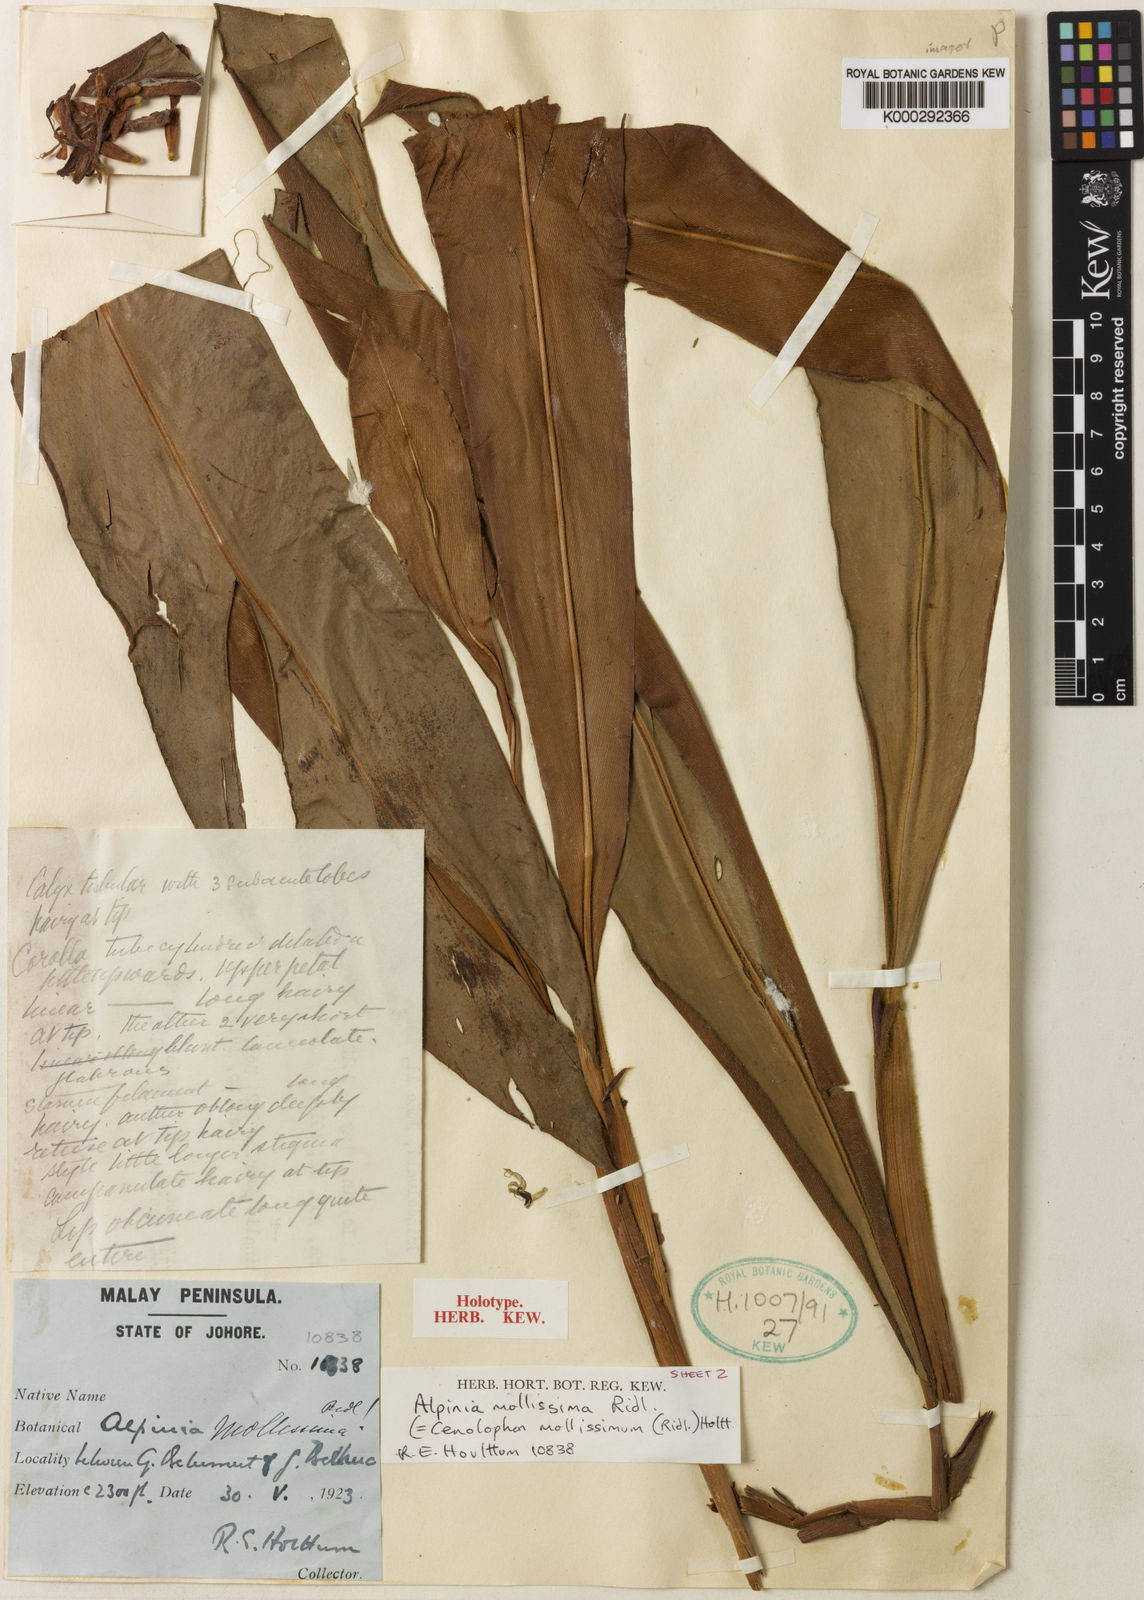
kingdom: Plantae
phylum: Tracheophyta
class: Liliopsida
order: Zingiberales
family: Zingiberaceae
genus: Alpinia
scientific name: Alpinia mollissima
